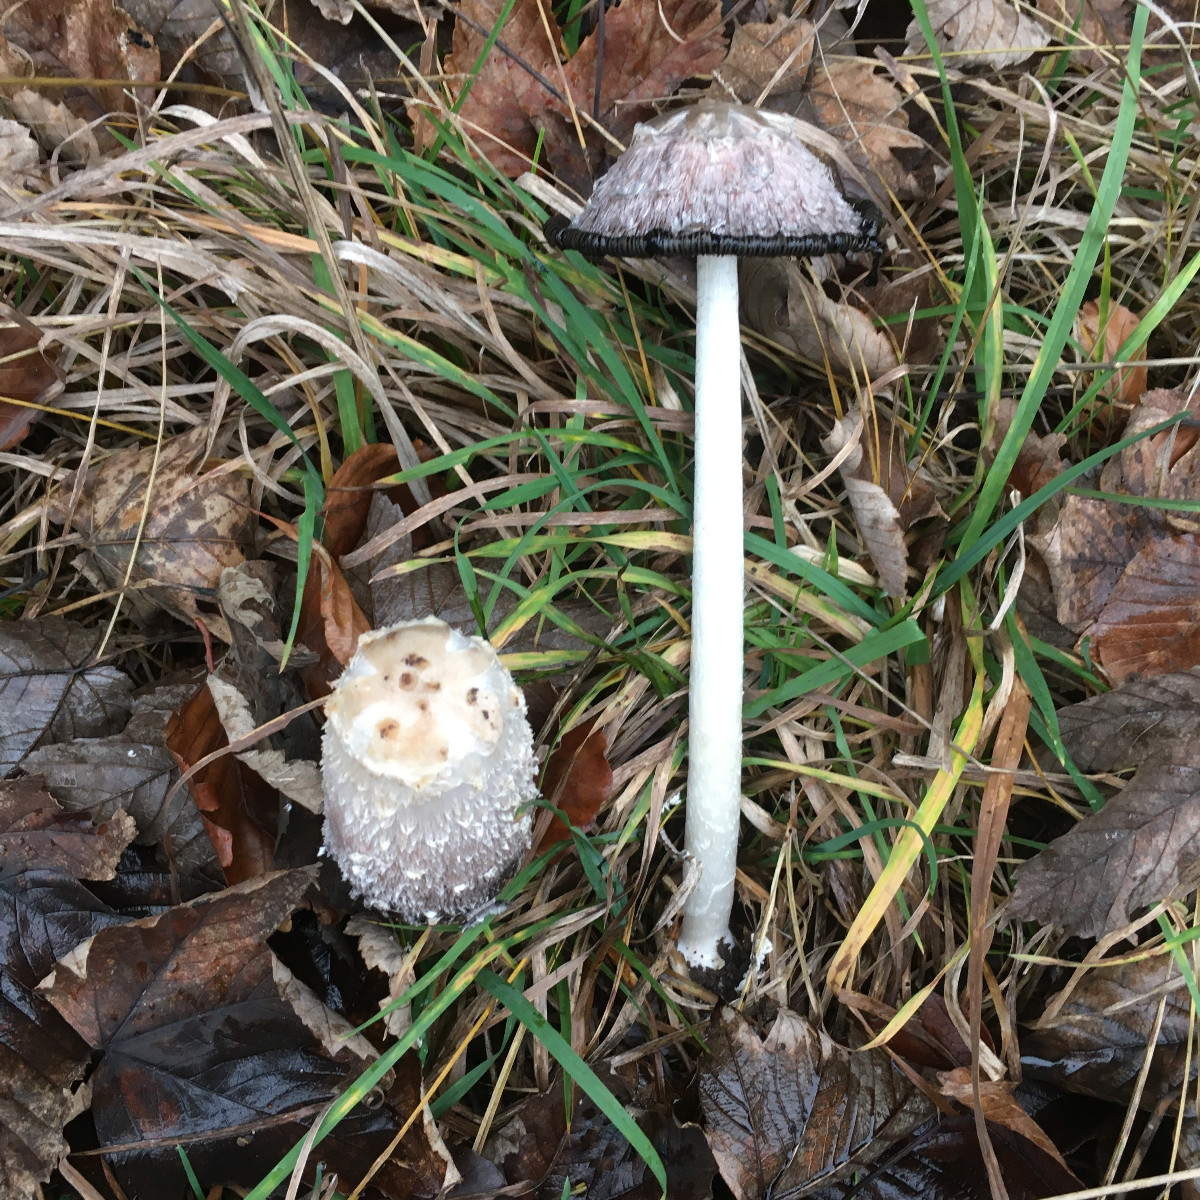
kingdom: Fungi
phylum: Basidiomycota
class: Agaricomycetes
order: Agaricales
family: Agaricaceae
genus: Coprinus
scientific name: Coprinus comatus
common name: stor parykhat
